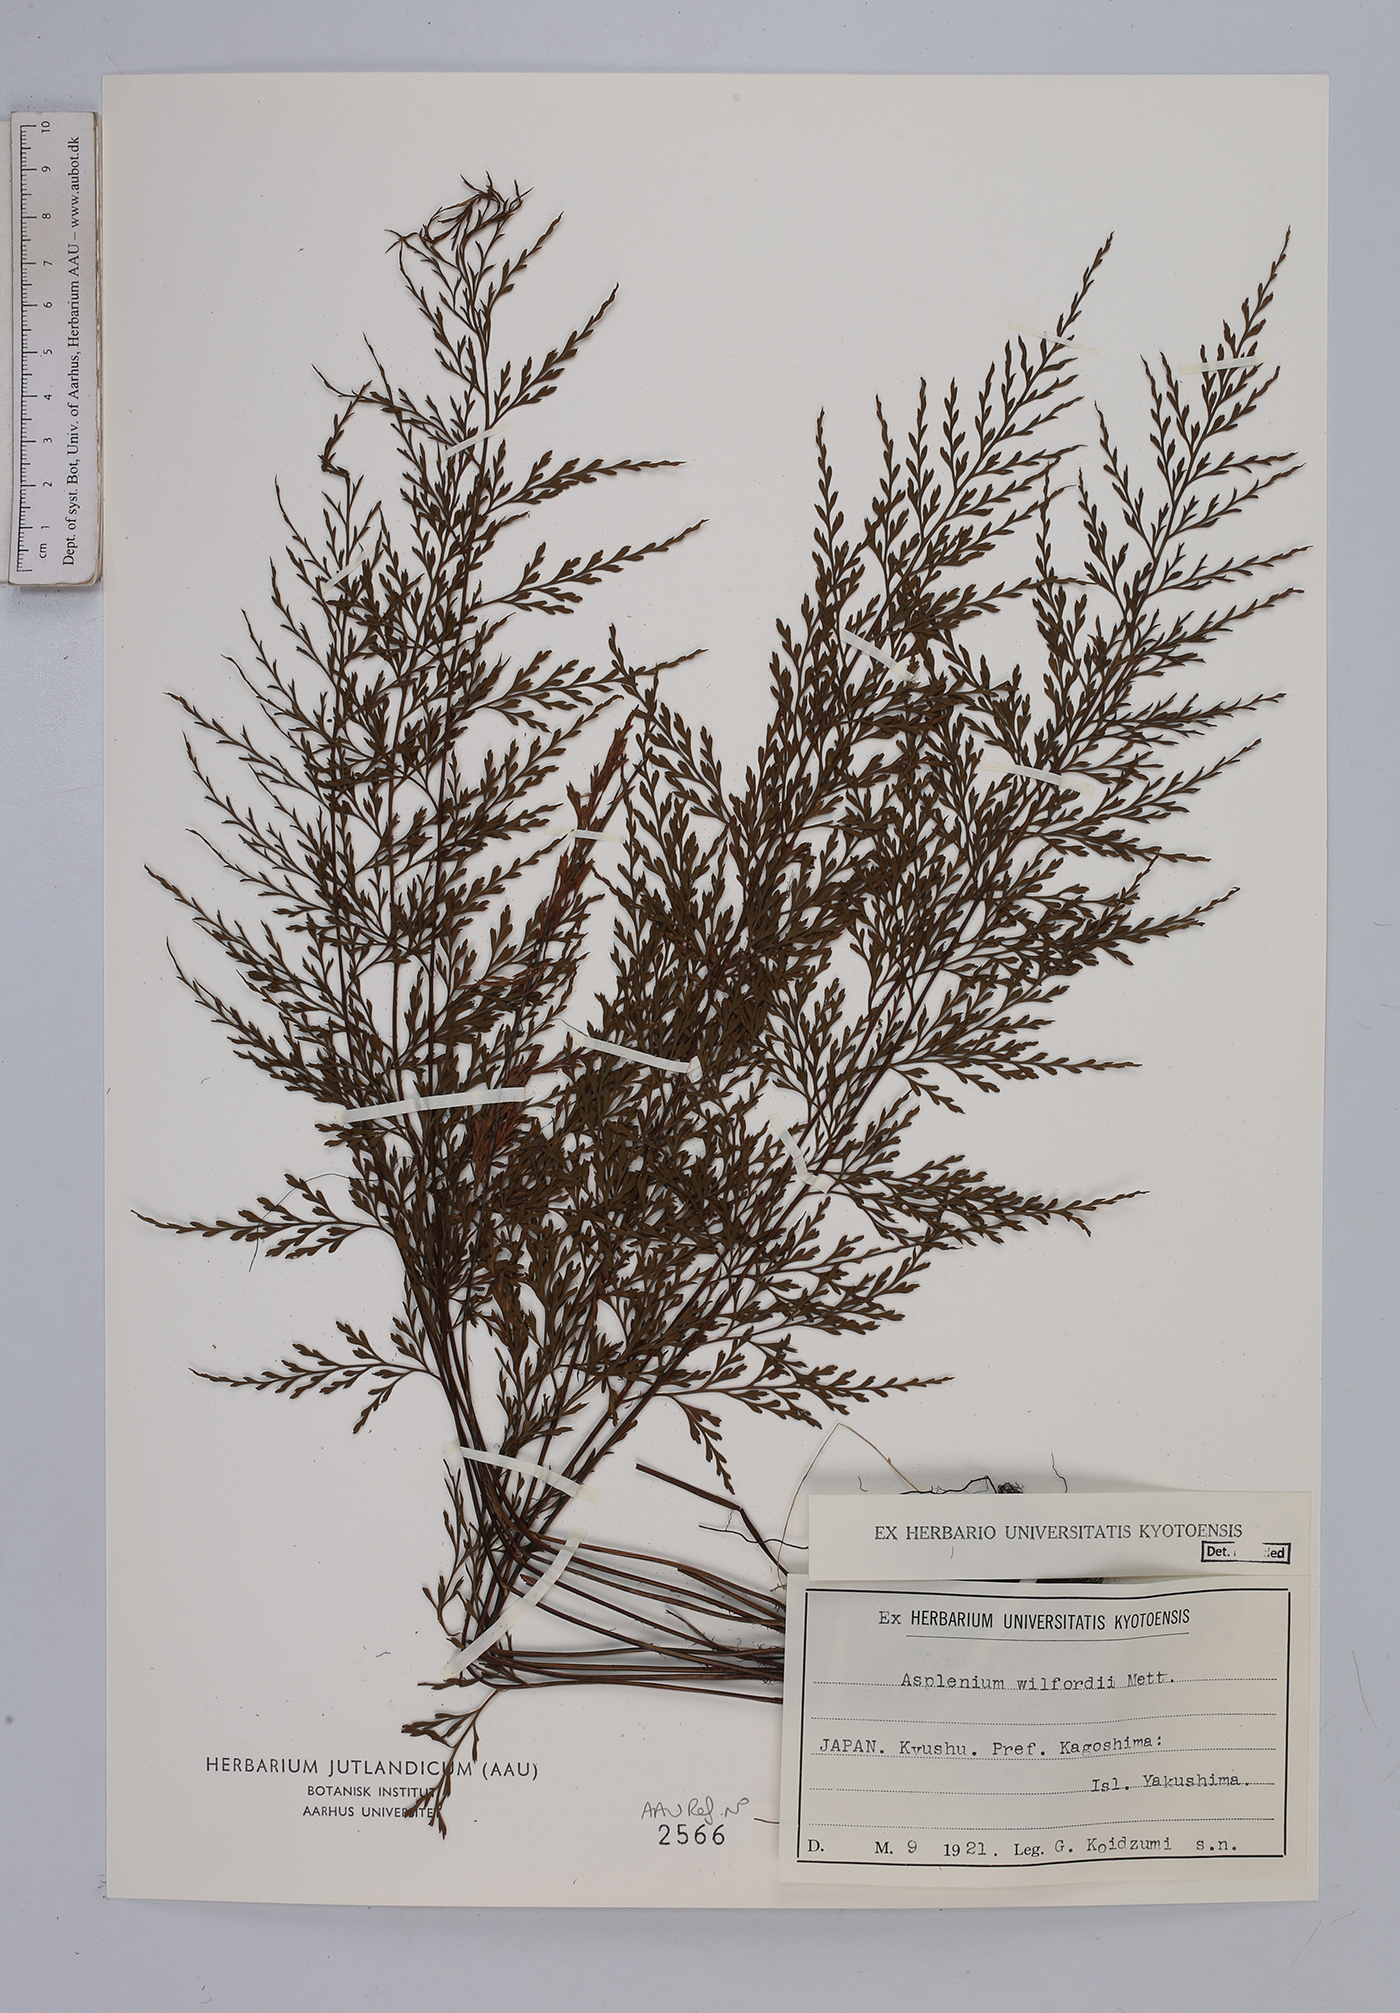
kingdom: Plantae
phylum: Tracheophyta
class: Polypodiopsida
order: Polypodiales
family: Aspleniaceae
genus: Asplenium
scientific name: Asplenium wilfordii
